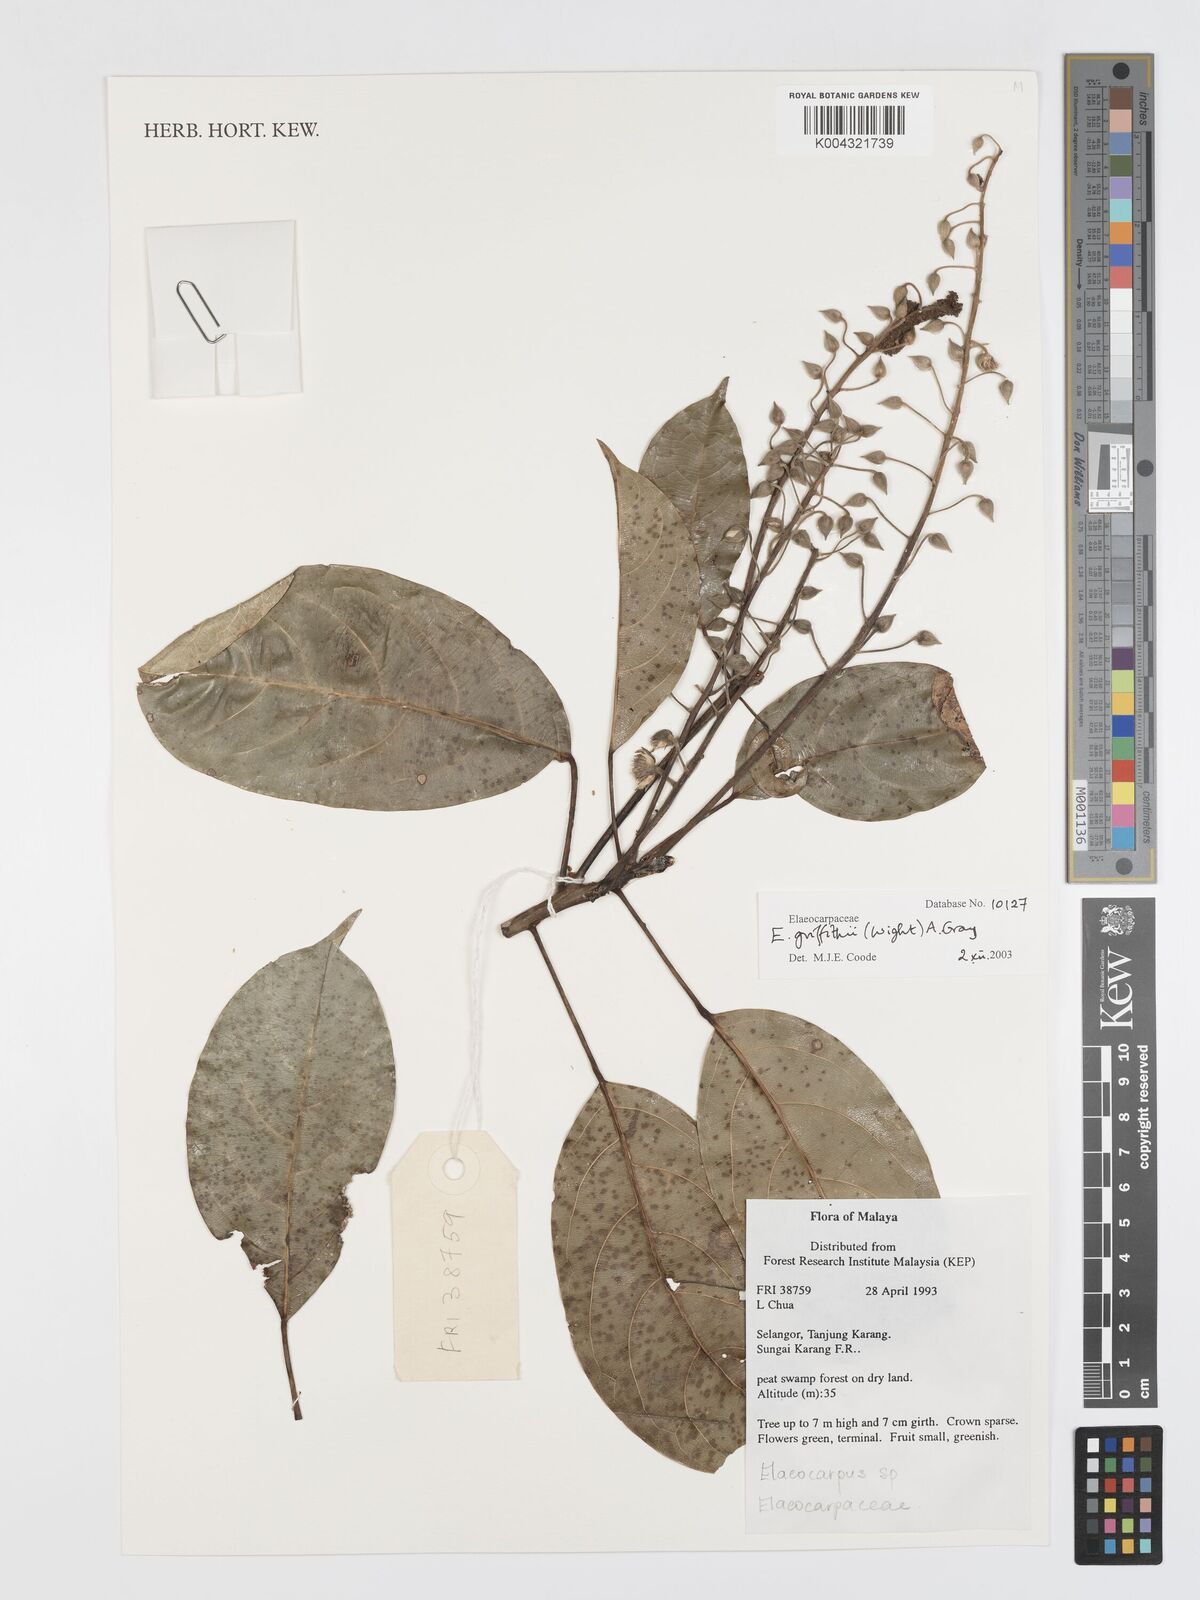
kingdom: Plantae
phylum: Tracheophyta
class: Magnoliopsida
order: Oxalidales
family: Elaeocarpaceae
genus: Elaeocarpus
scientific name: Elaeocarpus griffithii
